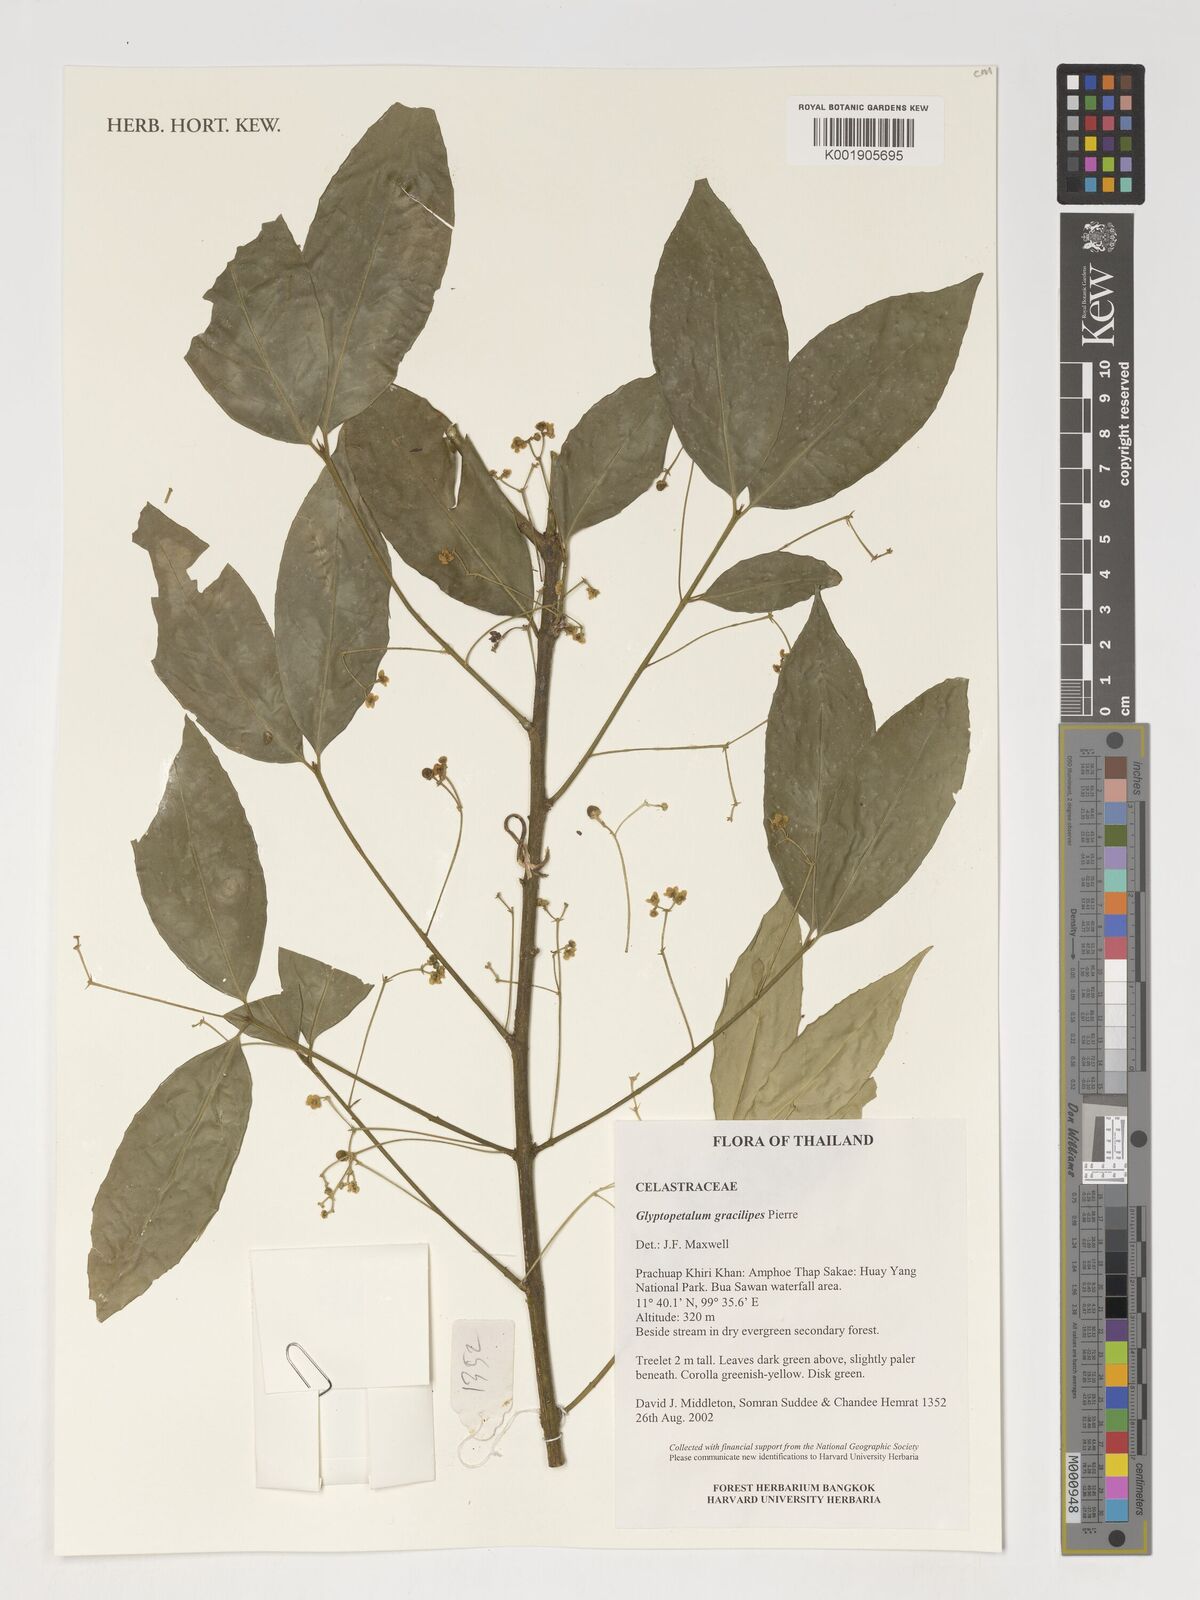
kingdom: Plantae
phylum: Tracheophyta
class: Magnoliopsida
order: Celastrales
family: Celastraceae
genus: Euonymus
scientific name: Euonymus gracilipes
